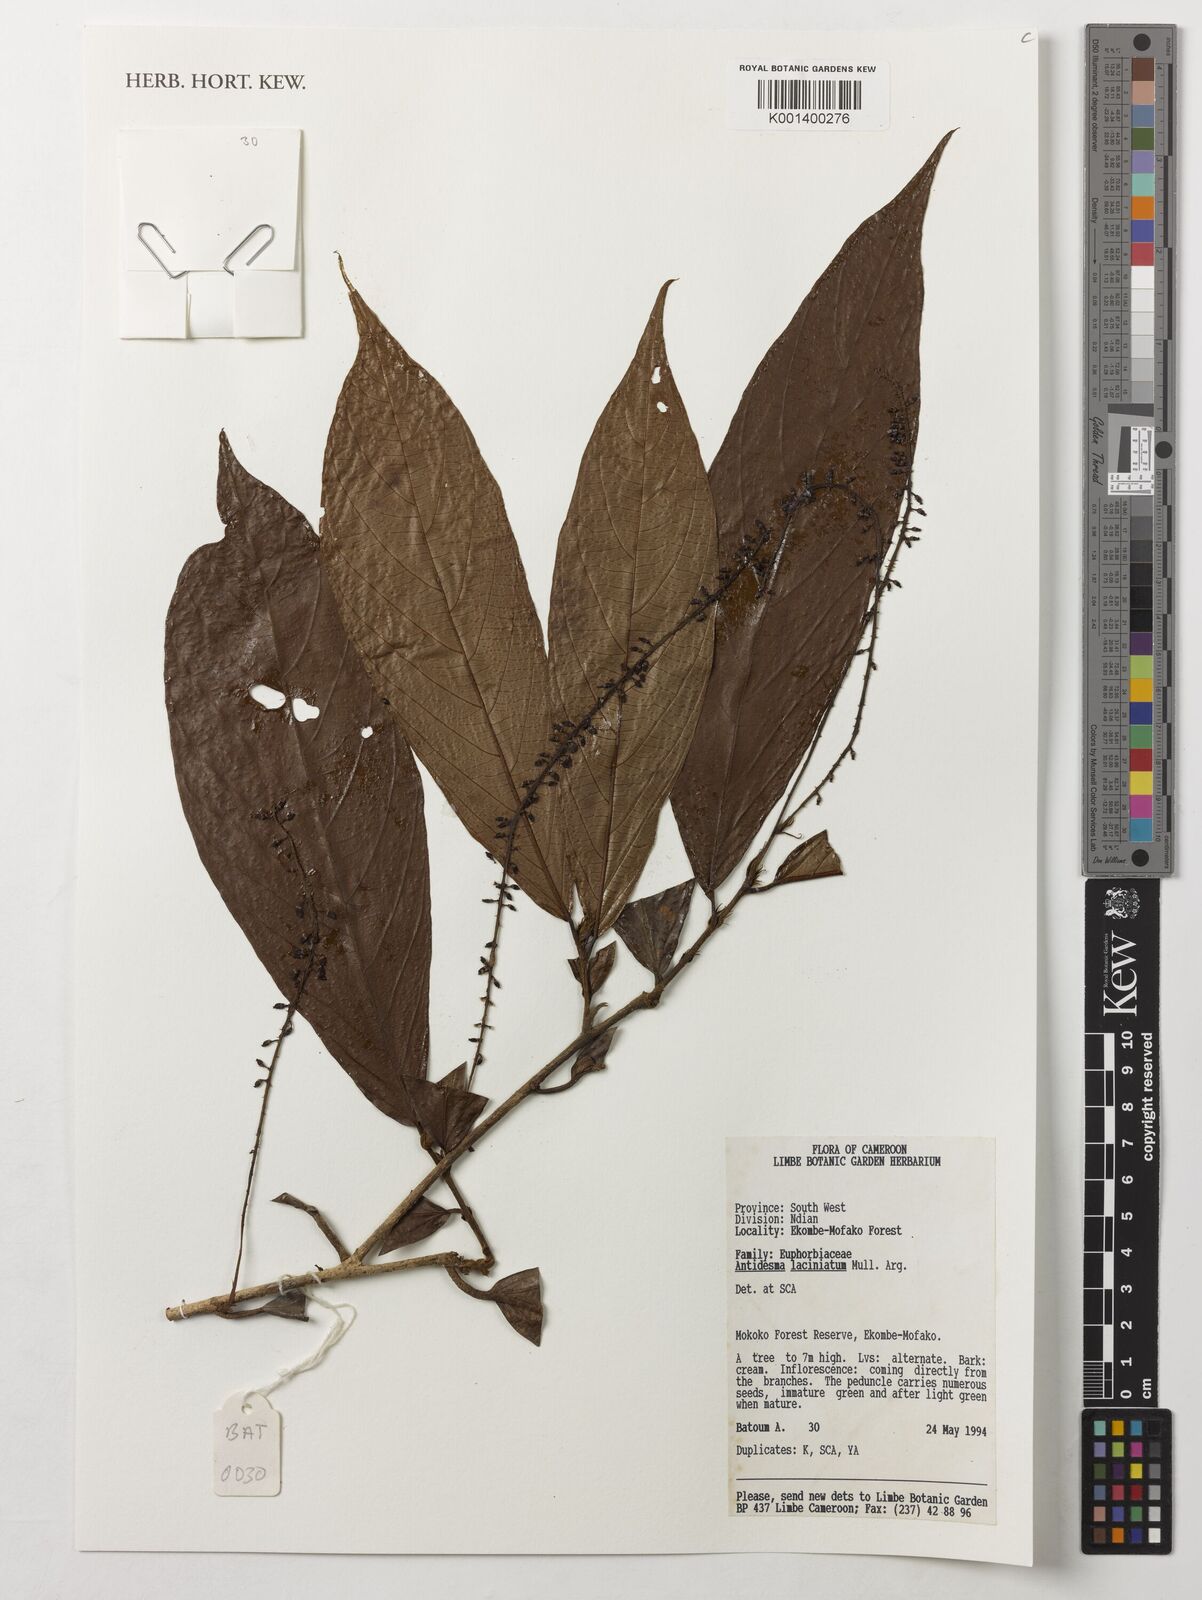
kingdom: Plantae
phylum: Tracheophyta
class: Magnoliopsida
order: Malpighiales
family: Phyllanthaceae
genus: Antidesma
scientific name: Antidesma laciniatum
